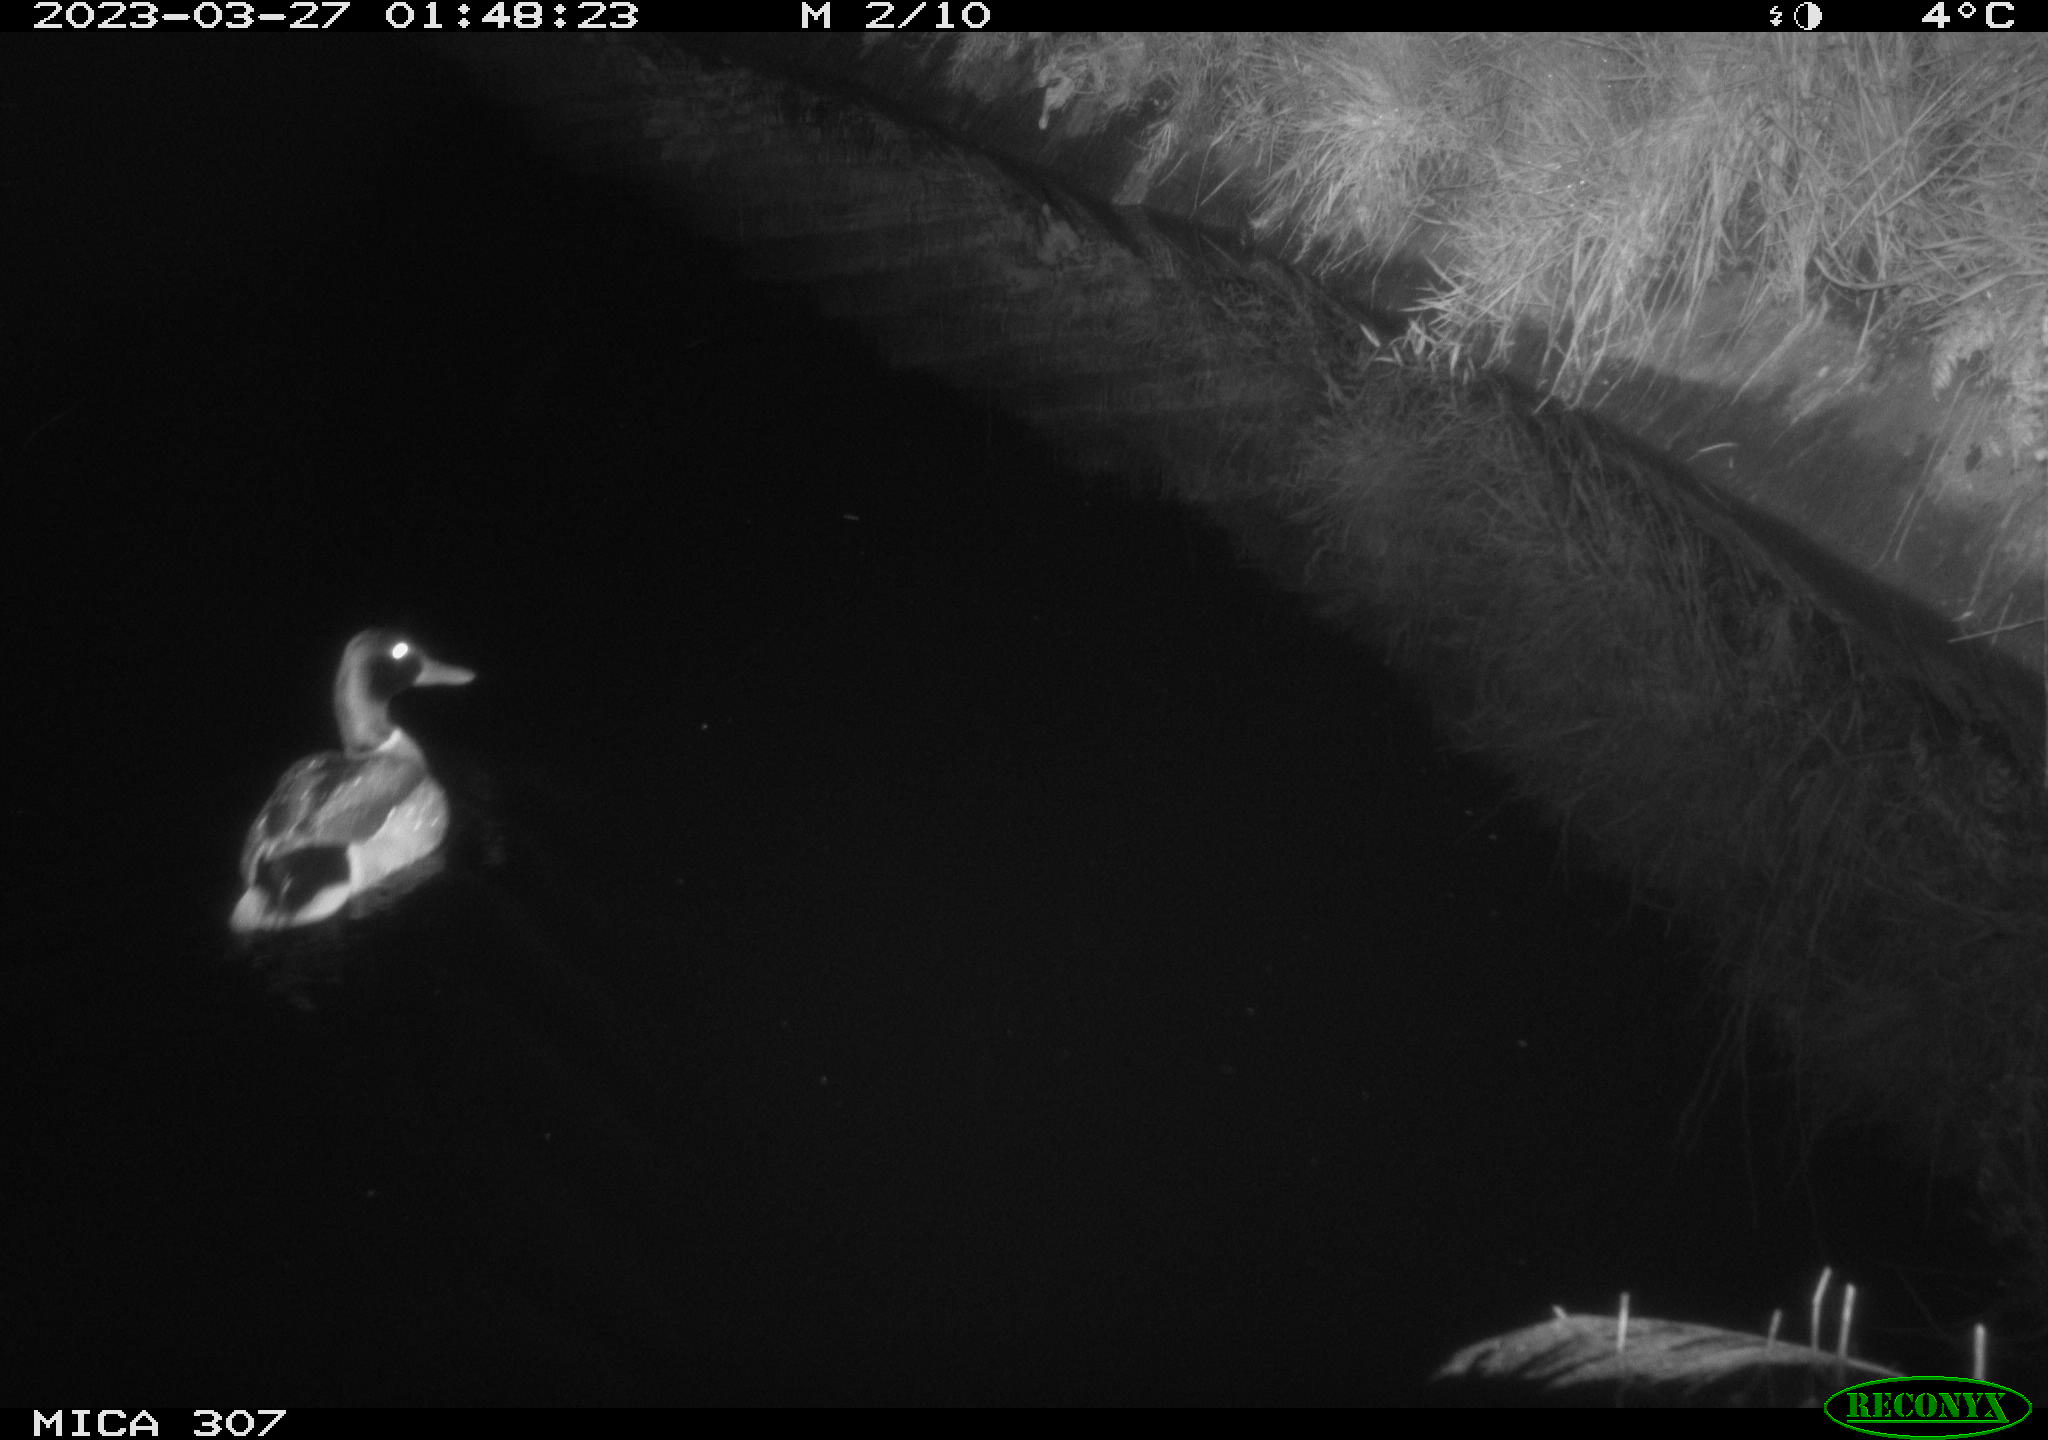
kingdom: Animalia
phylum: Chordata
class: Aves
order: Anseriformes
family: Anatidae
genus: Anas
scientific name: Anas
